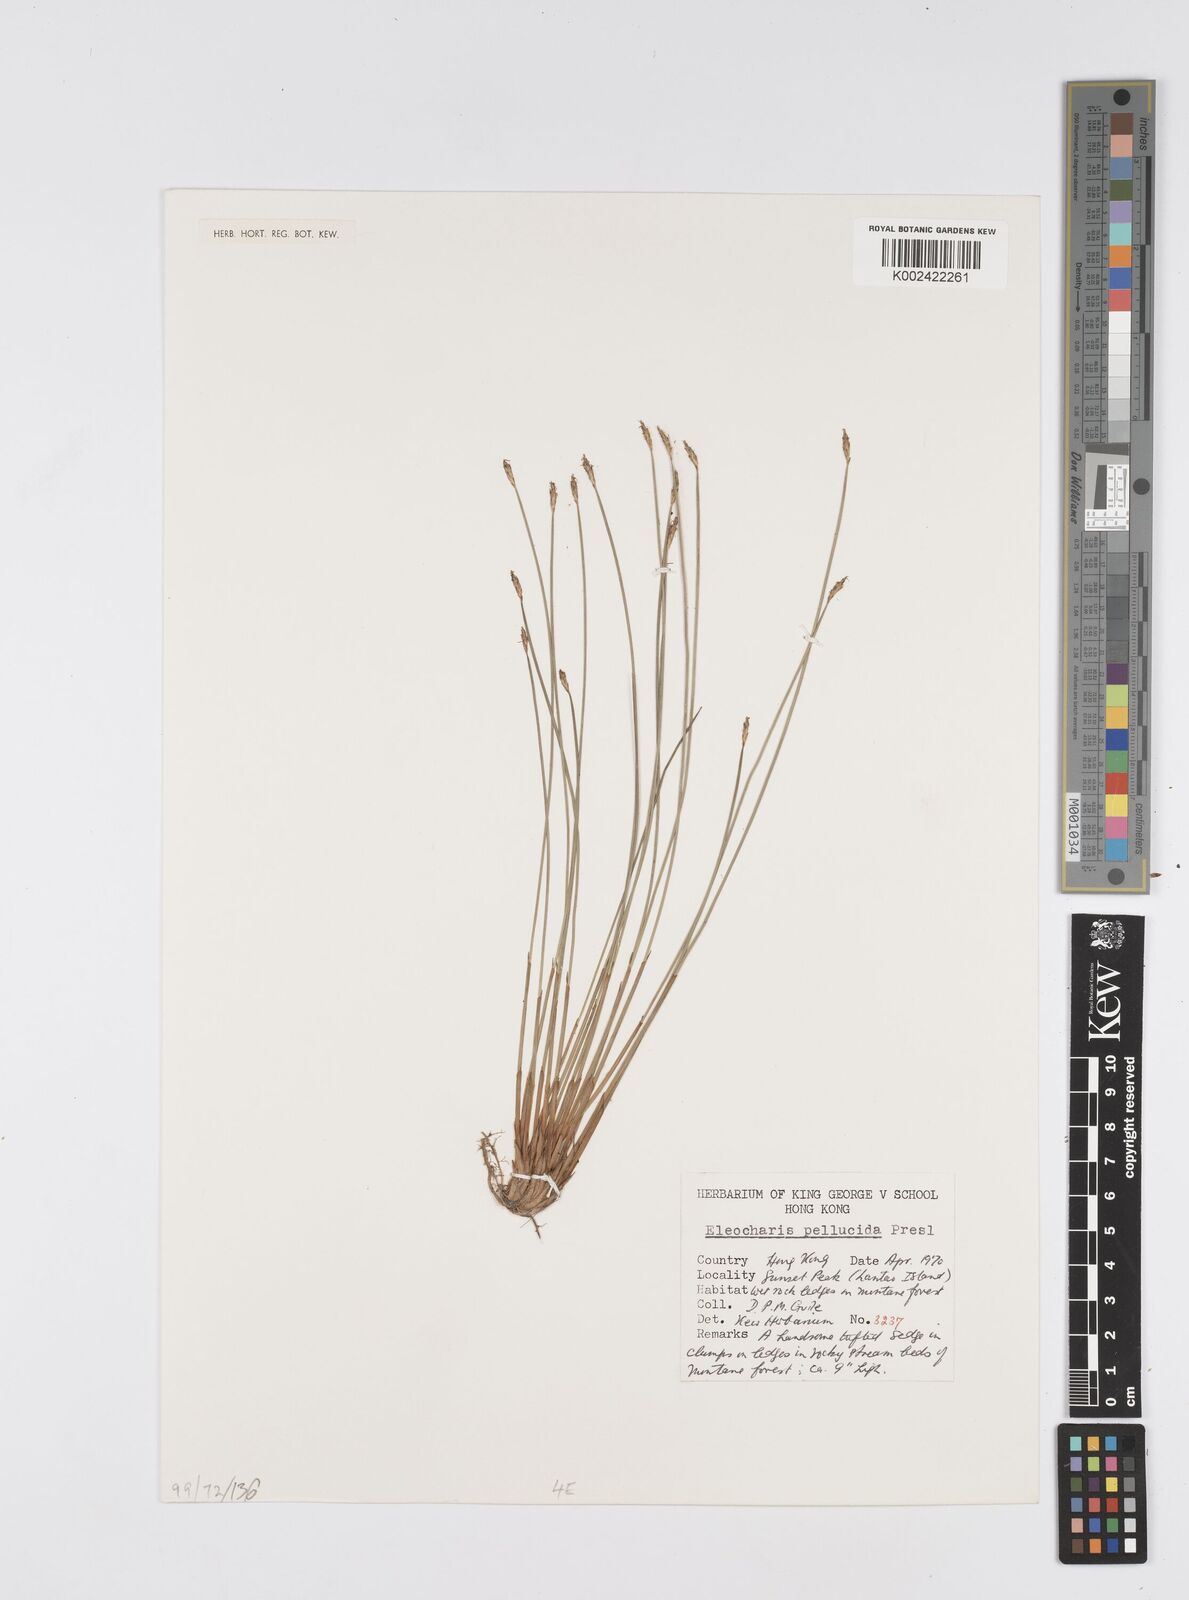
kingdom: Plantae
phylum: Tracheophyta
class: Liliopsida
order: Poales
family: Cyperaceae
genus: Eleocharis
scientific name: Eleocharis pellucida
